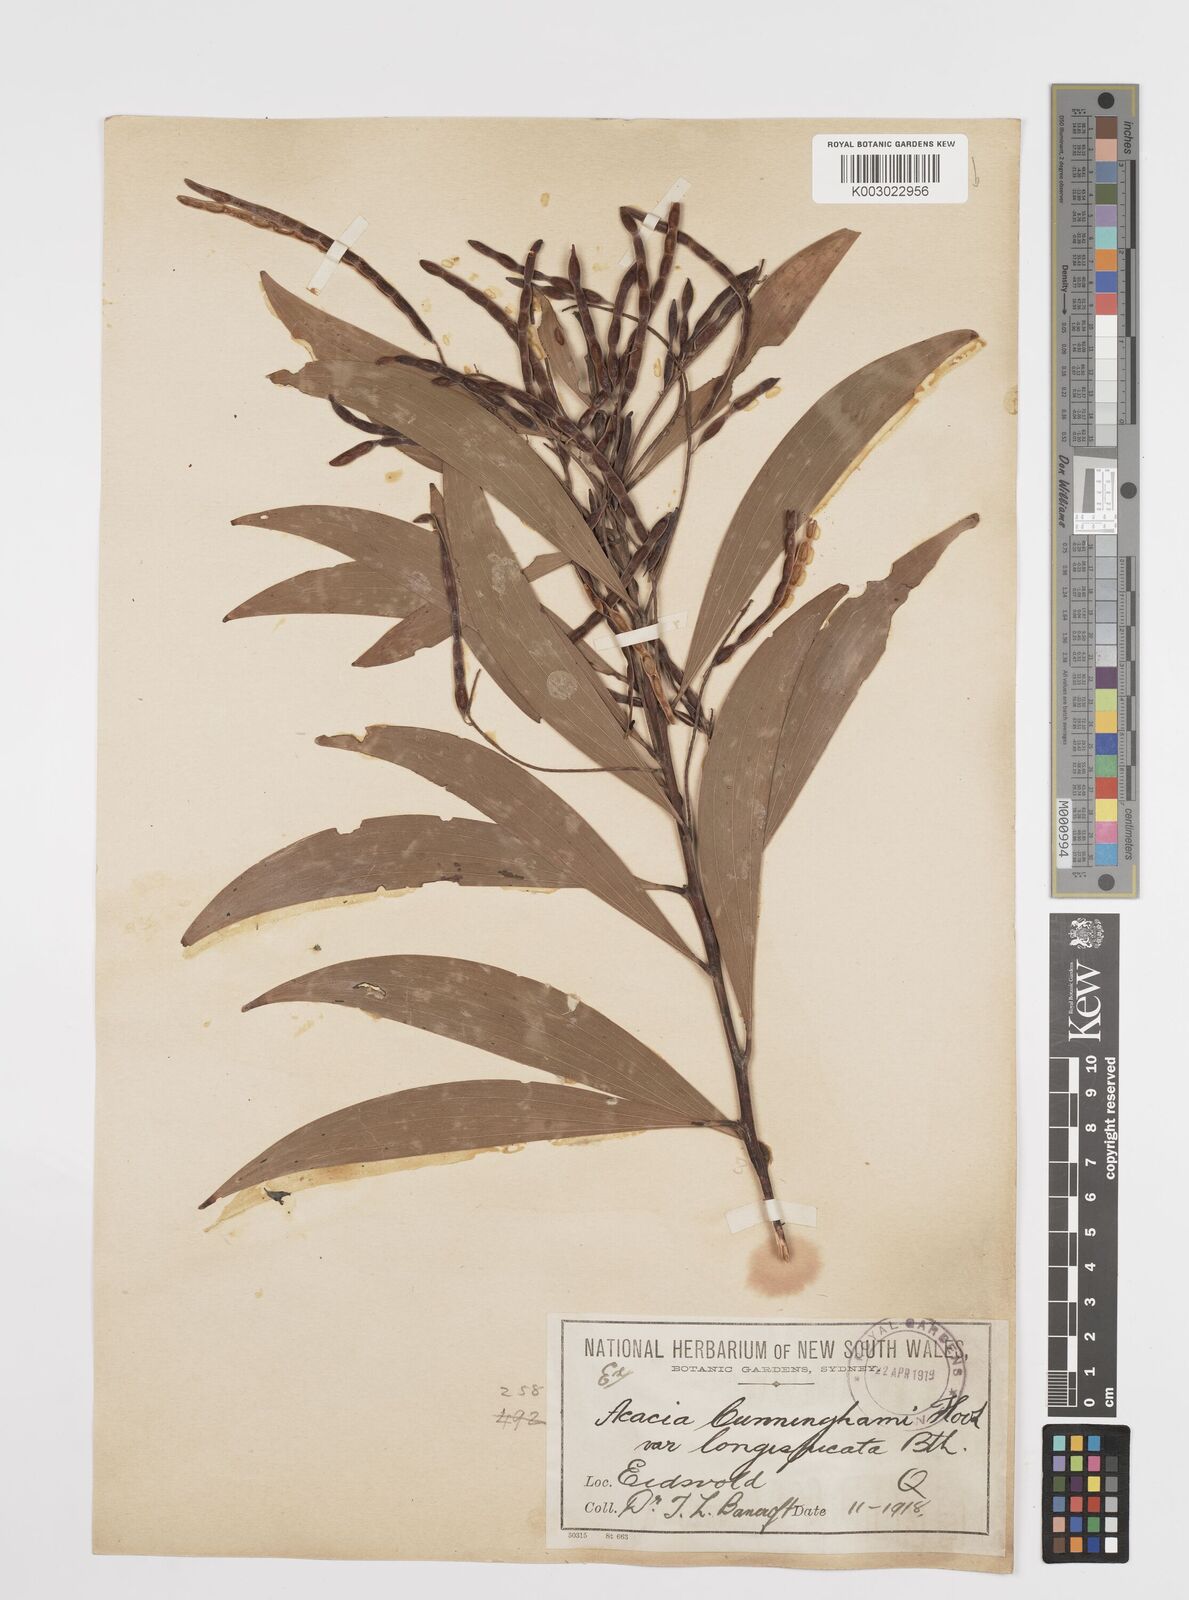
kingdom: Plantae
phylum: Tracheophyta
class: Magnoliopsida
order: Fabales
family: Fabaceae
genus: Acacia
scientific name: Acacia longispicata
